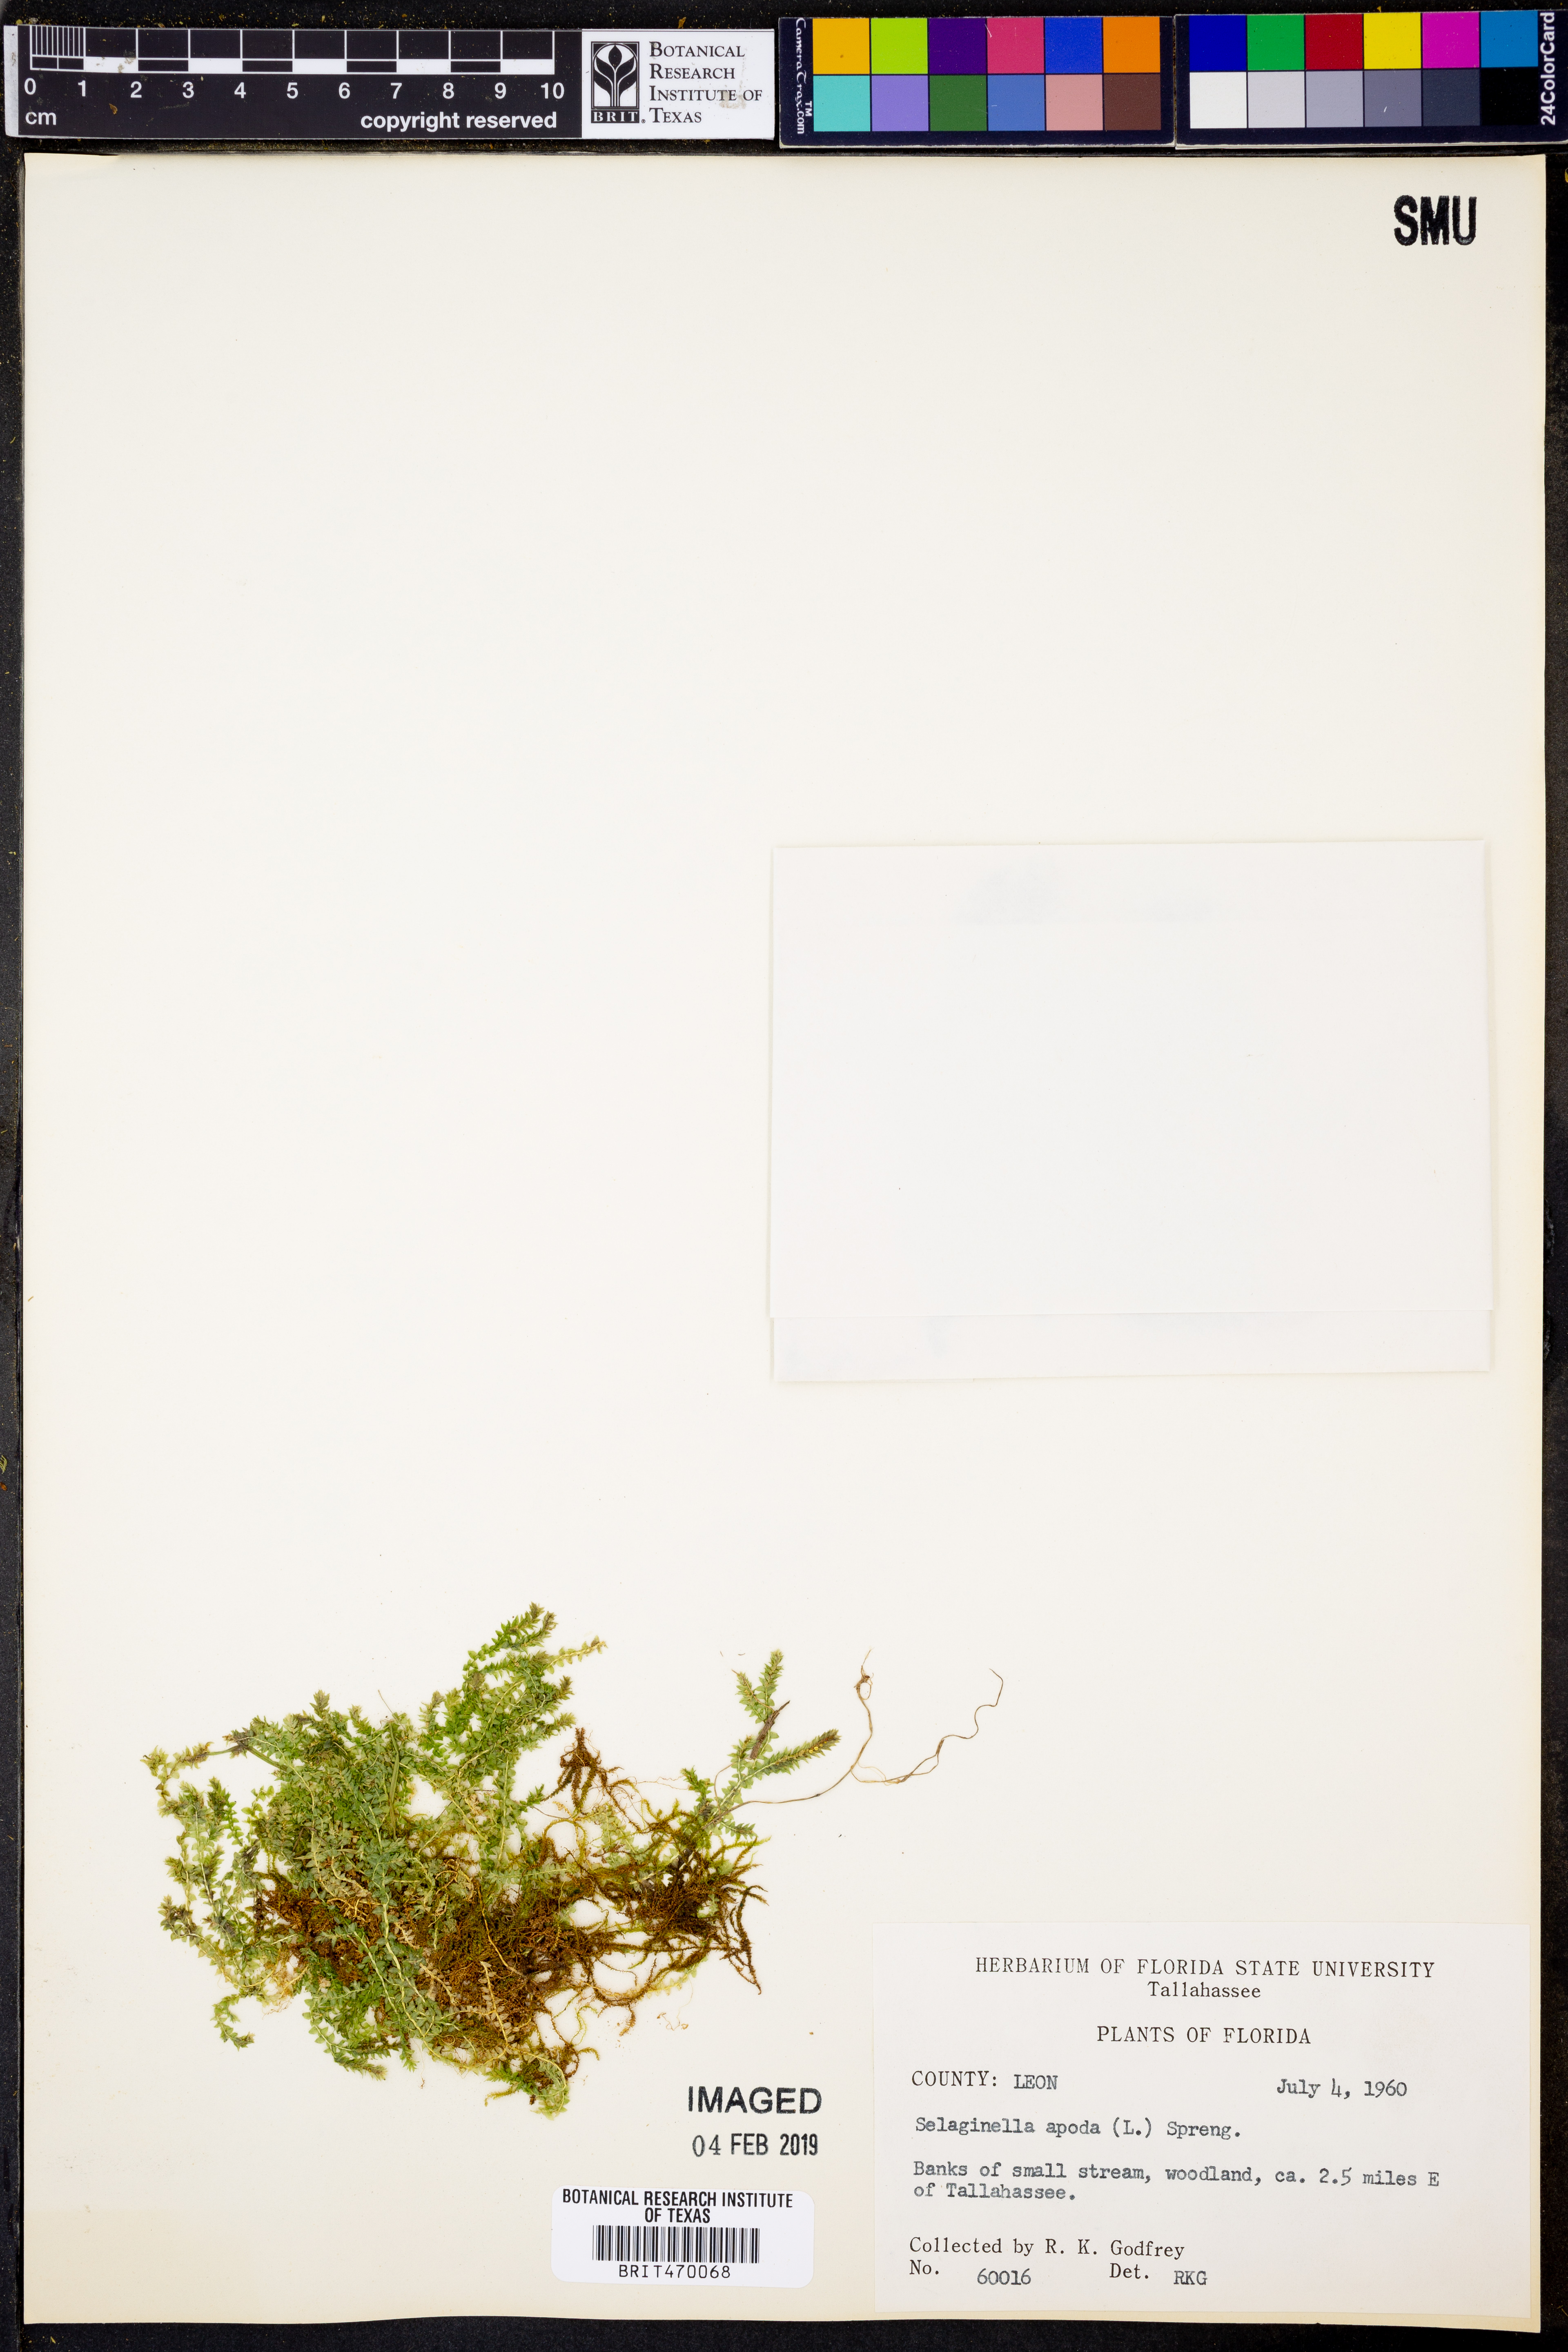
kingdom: Plantae
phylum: Tracheophyta
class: Lycopodiopsida
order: Selaginellales
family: Selaginellaceae
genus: Selaginella
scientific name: Selaginella apoda
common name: Creeping spikemoss
